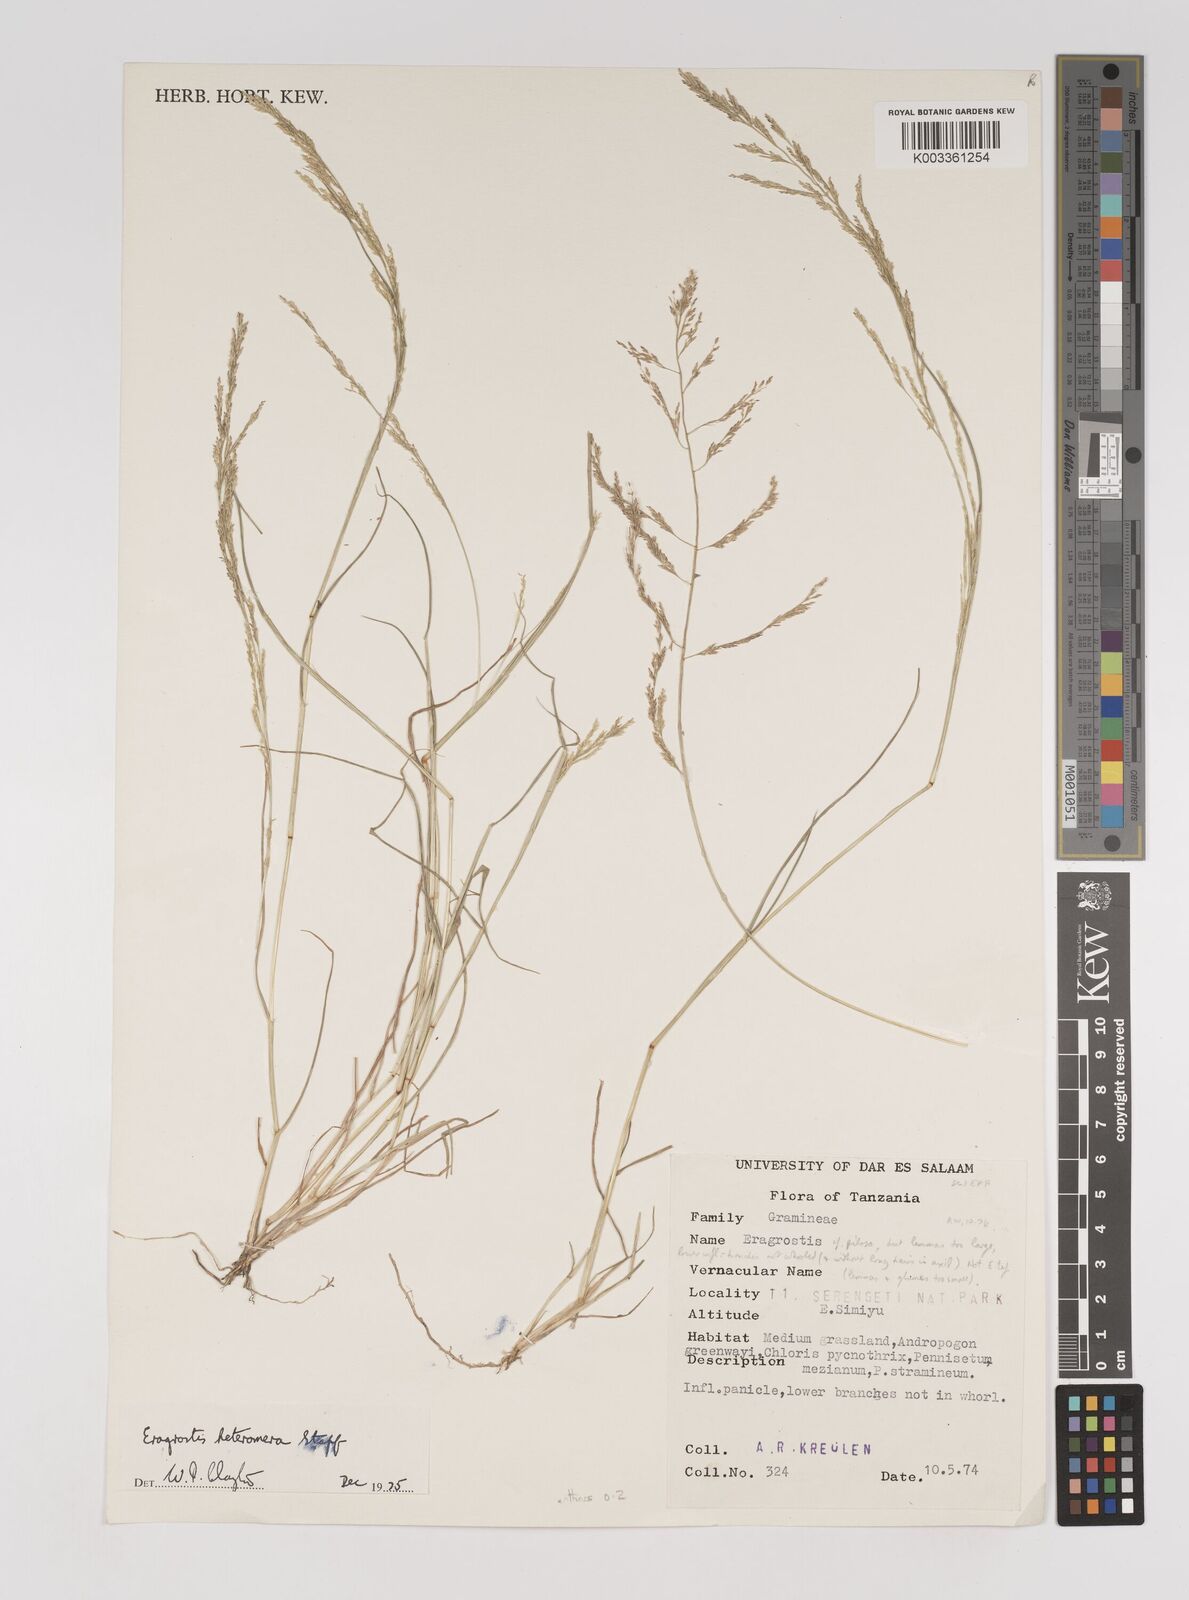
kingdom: Plantae
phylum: Tracheophyta
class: Liliopsida
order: Poales
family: Poaceae
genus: Eragrostis
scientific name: Eragrostis heteromera
